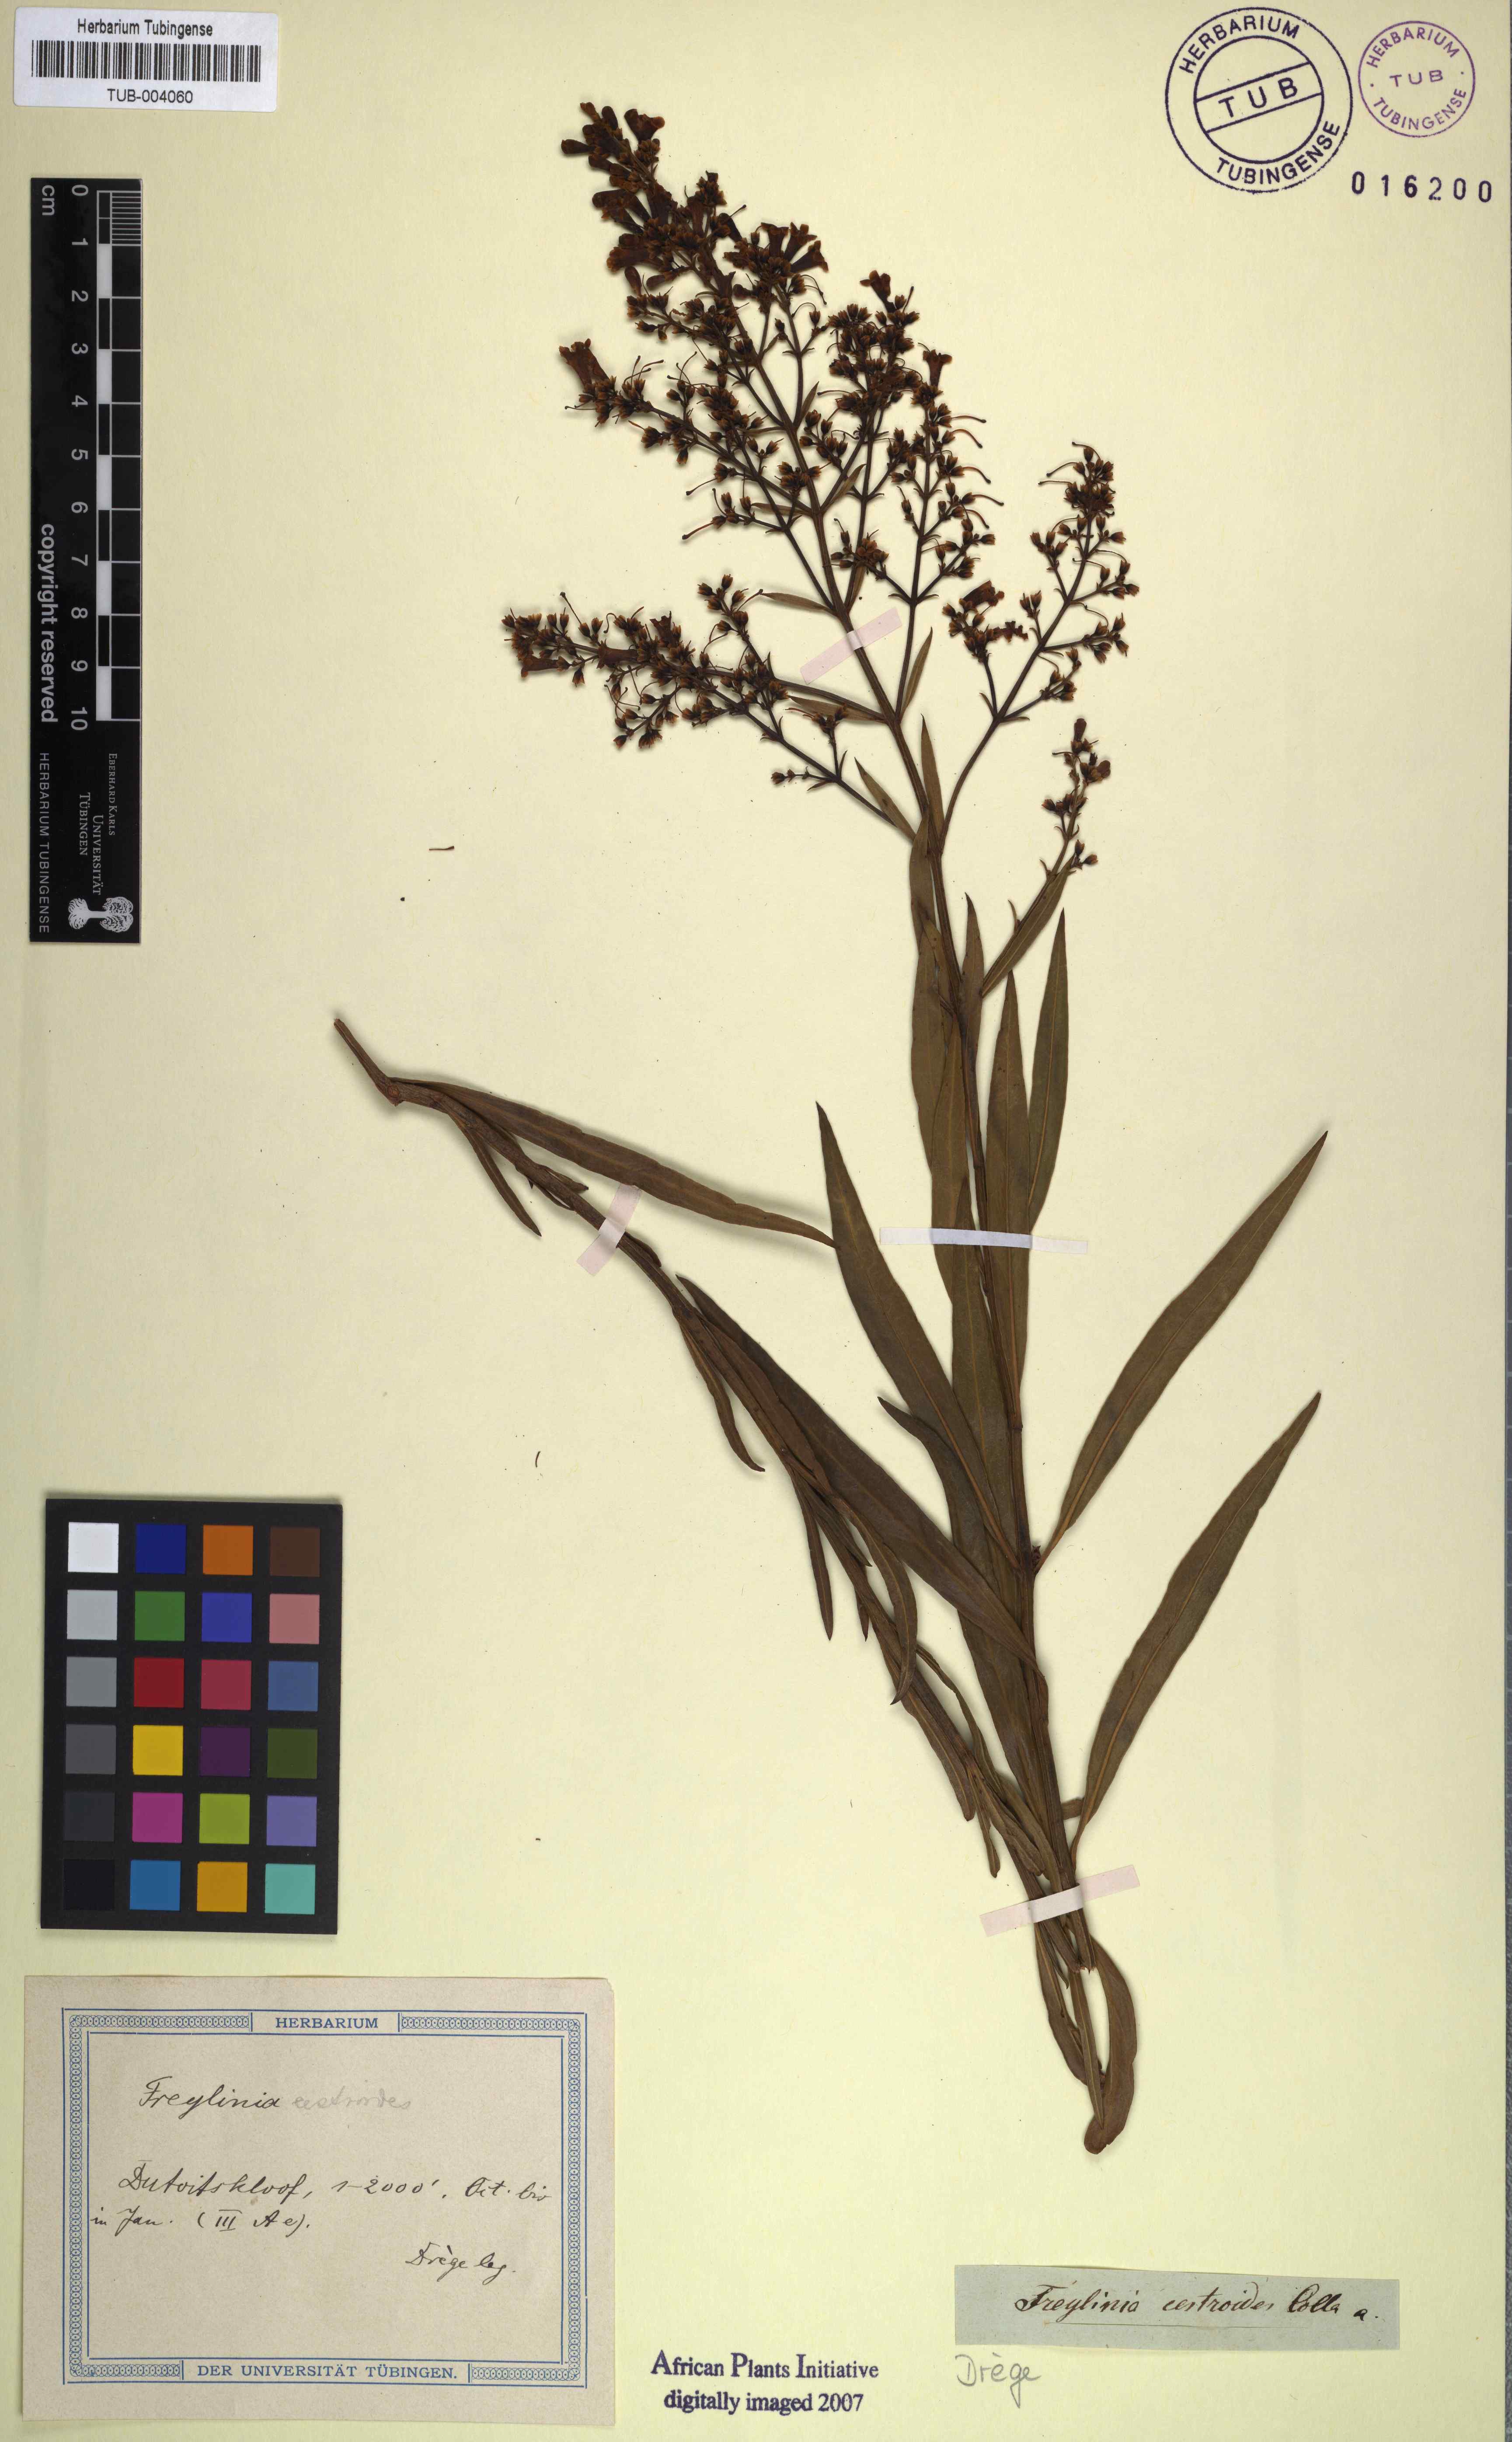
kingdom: Plantae
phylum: Tracheophyta
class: Magnoliopsida
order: Lamiales
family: Scrophulariaceae
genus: Freylinia
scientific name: Freylinia lanceolata
